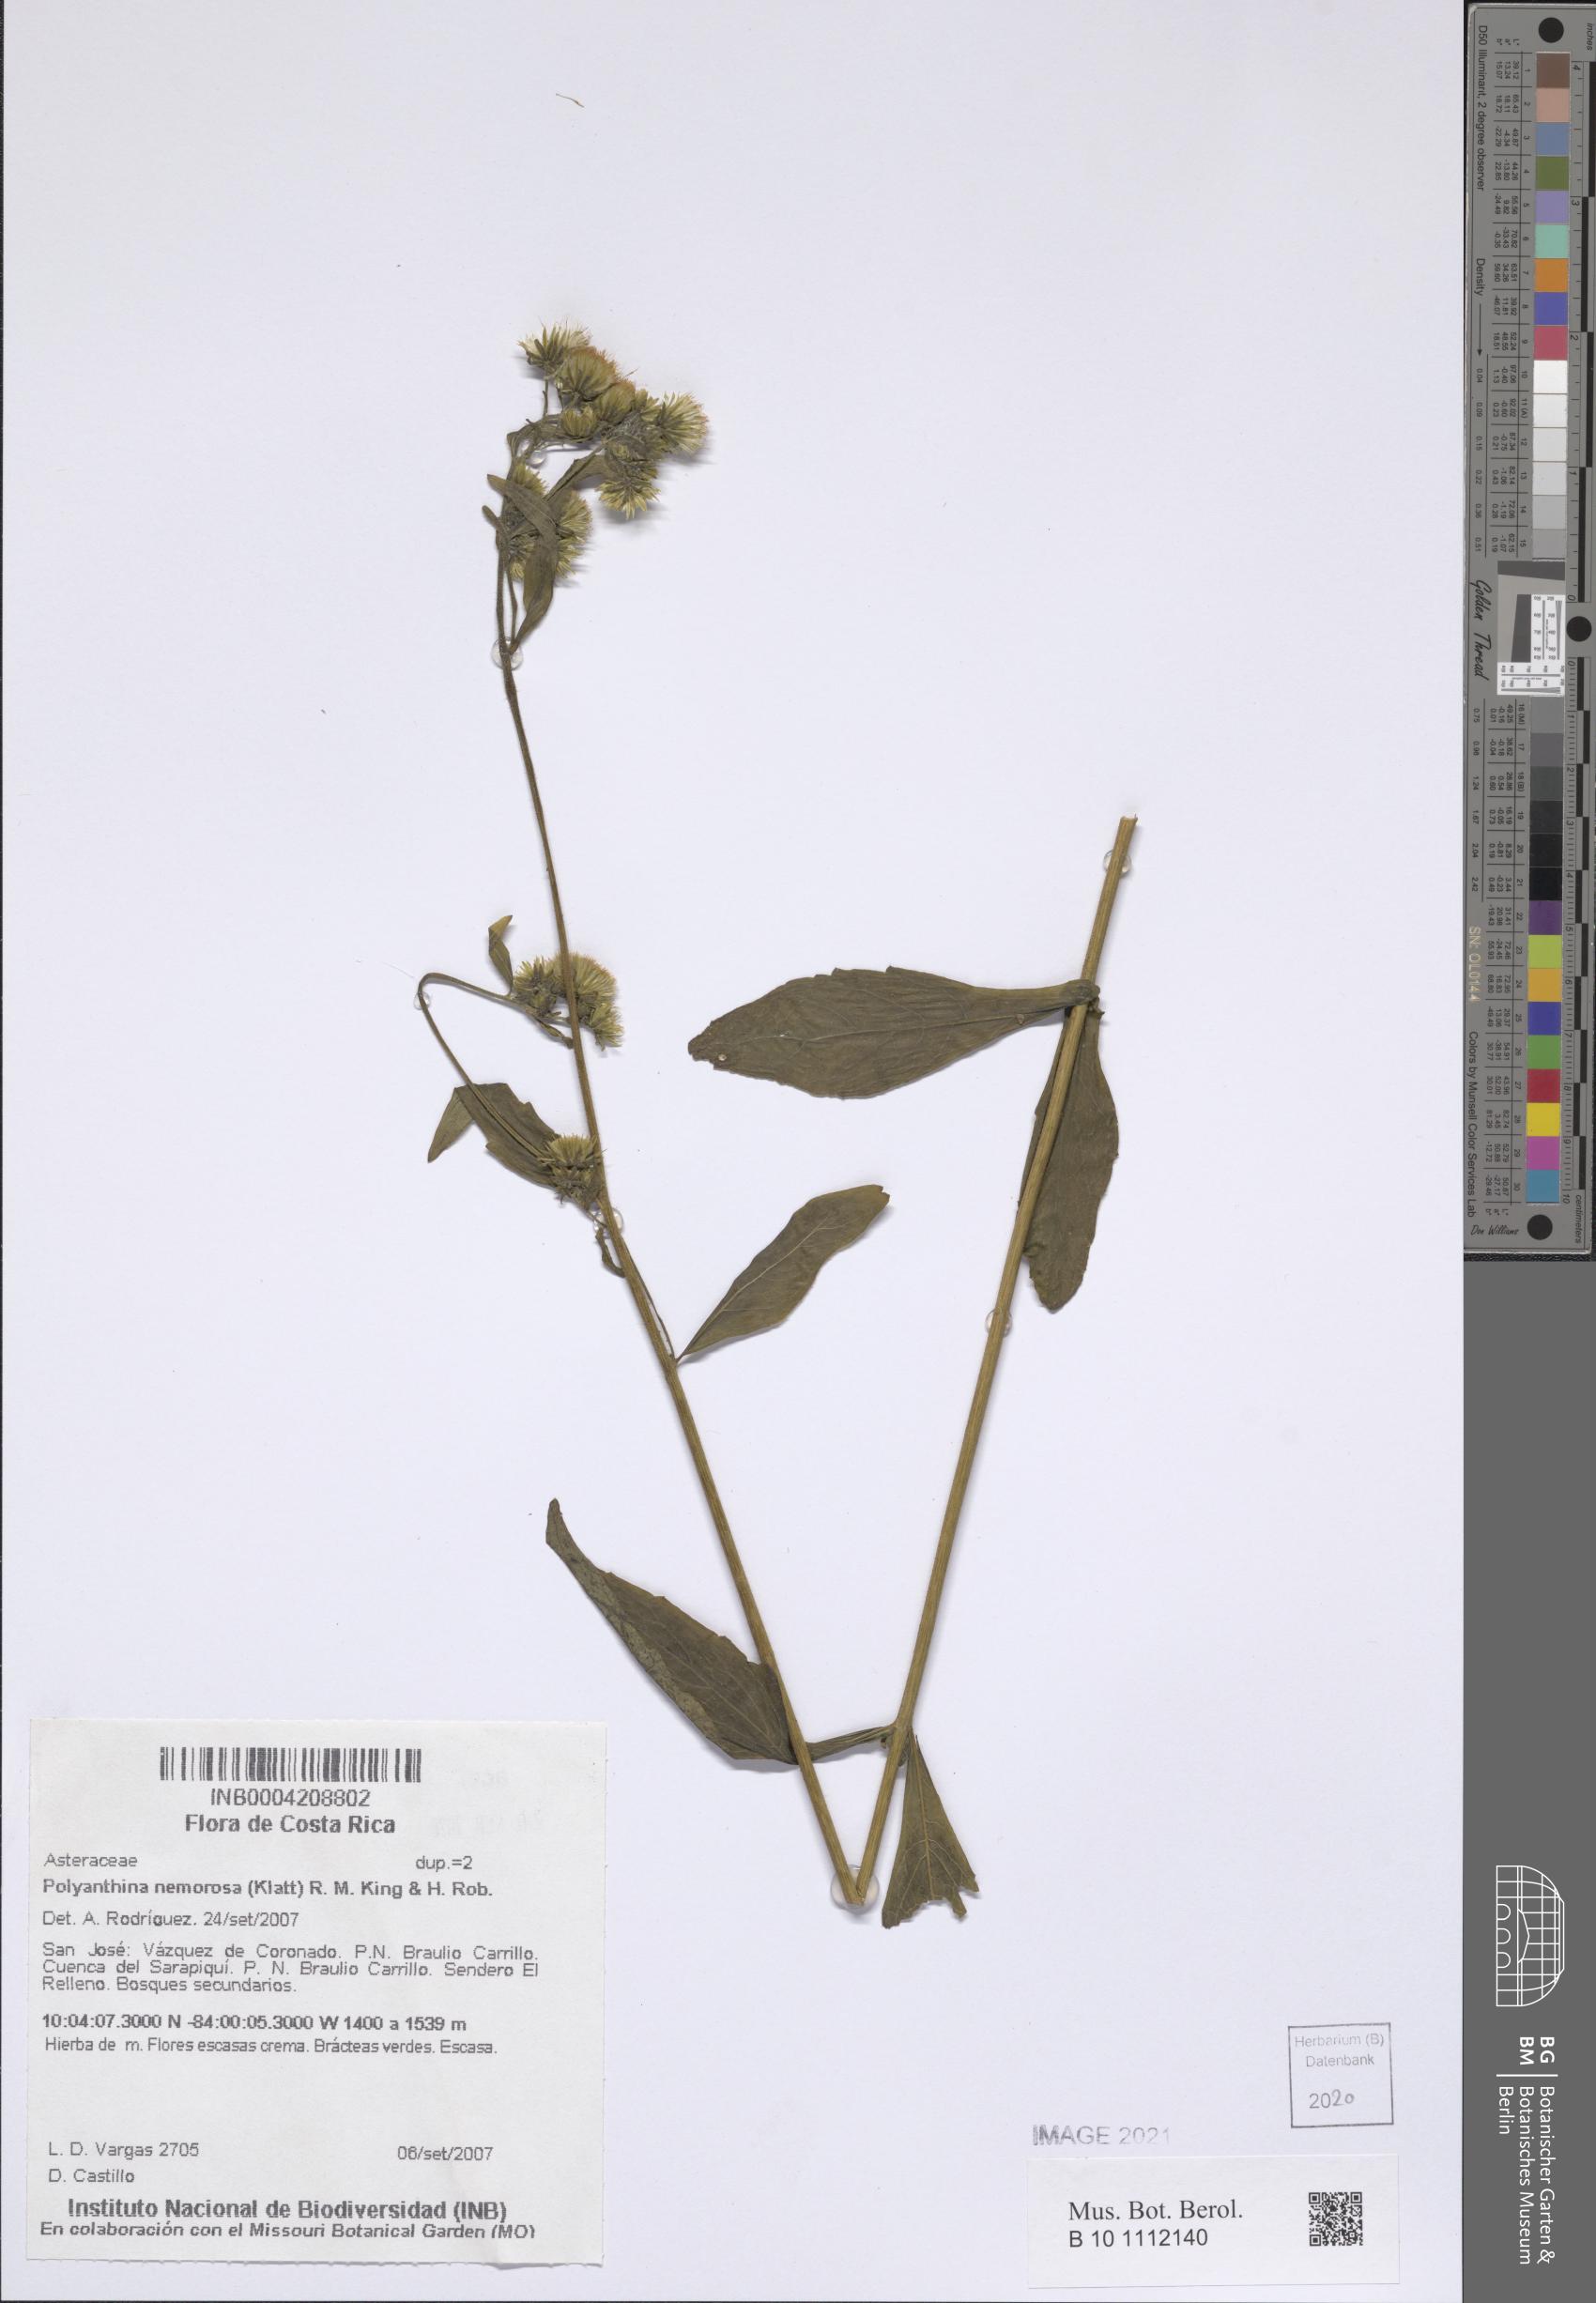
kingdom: Plantae
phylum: Tracheophyta
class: Magnoliopsida
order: Asterales
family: Asteraceae
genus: Polyanthina
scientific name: Polyanthina nemorosa
